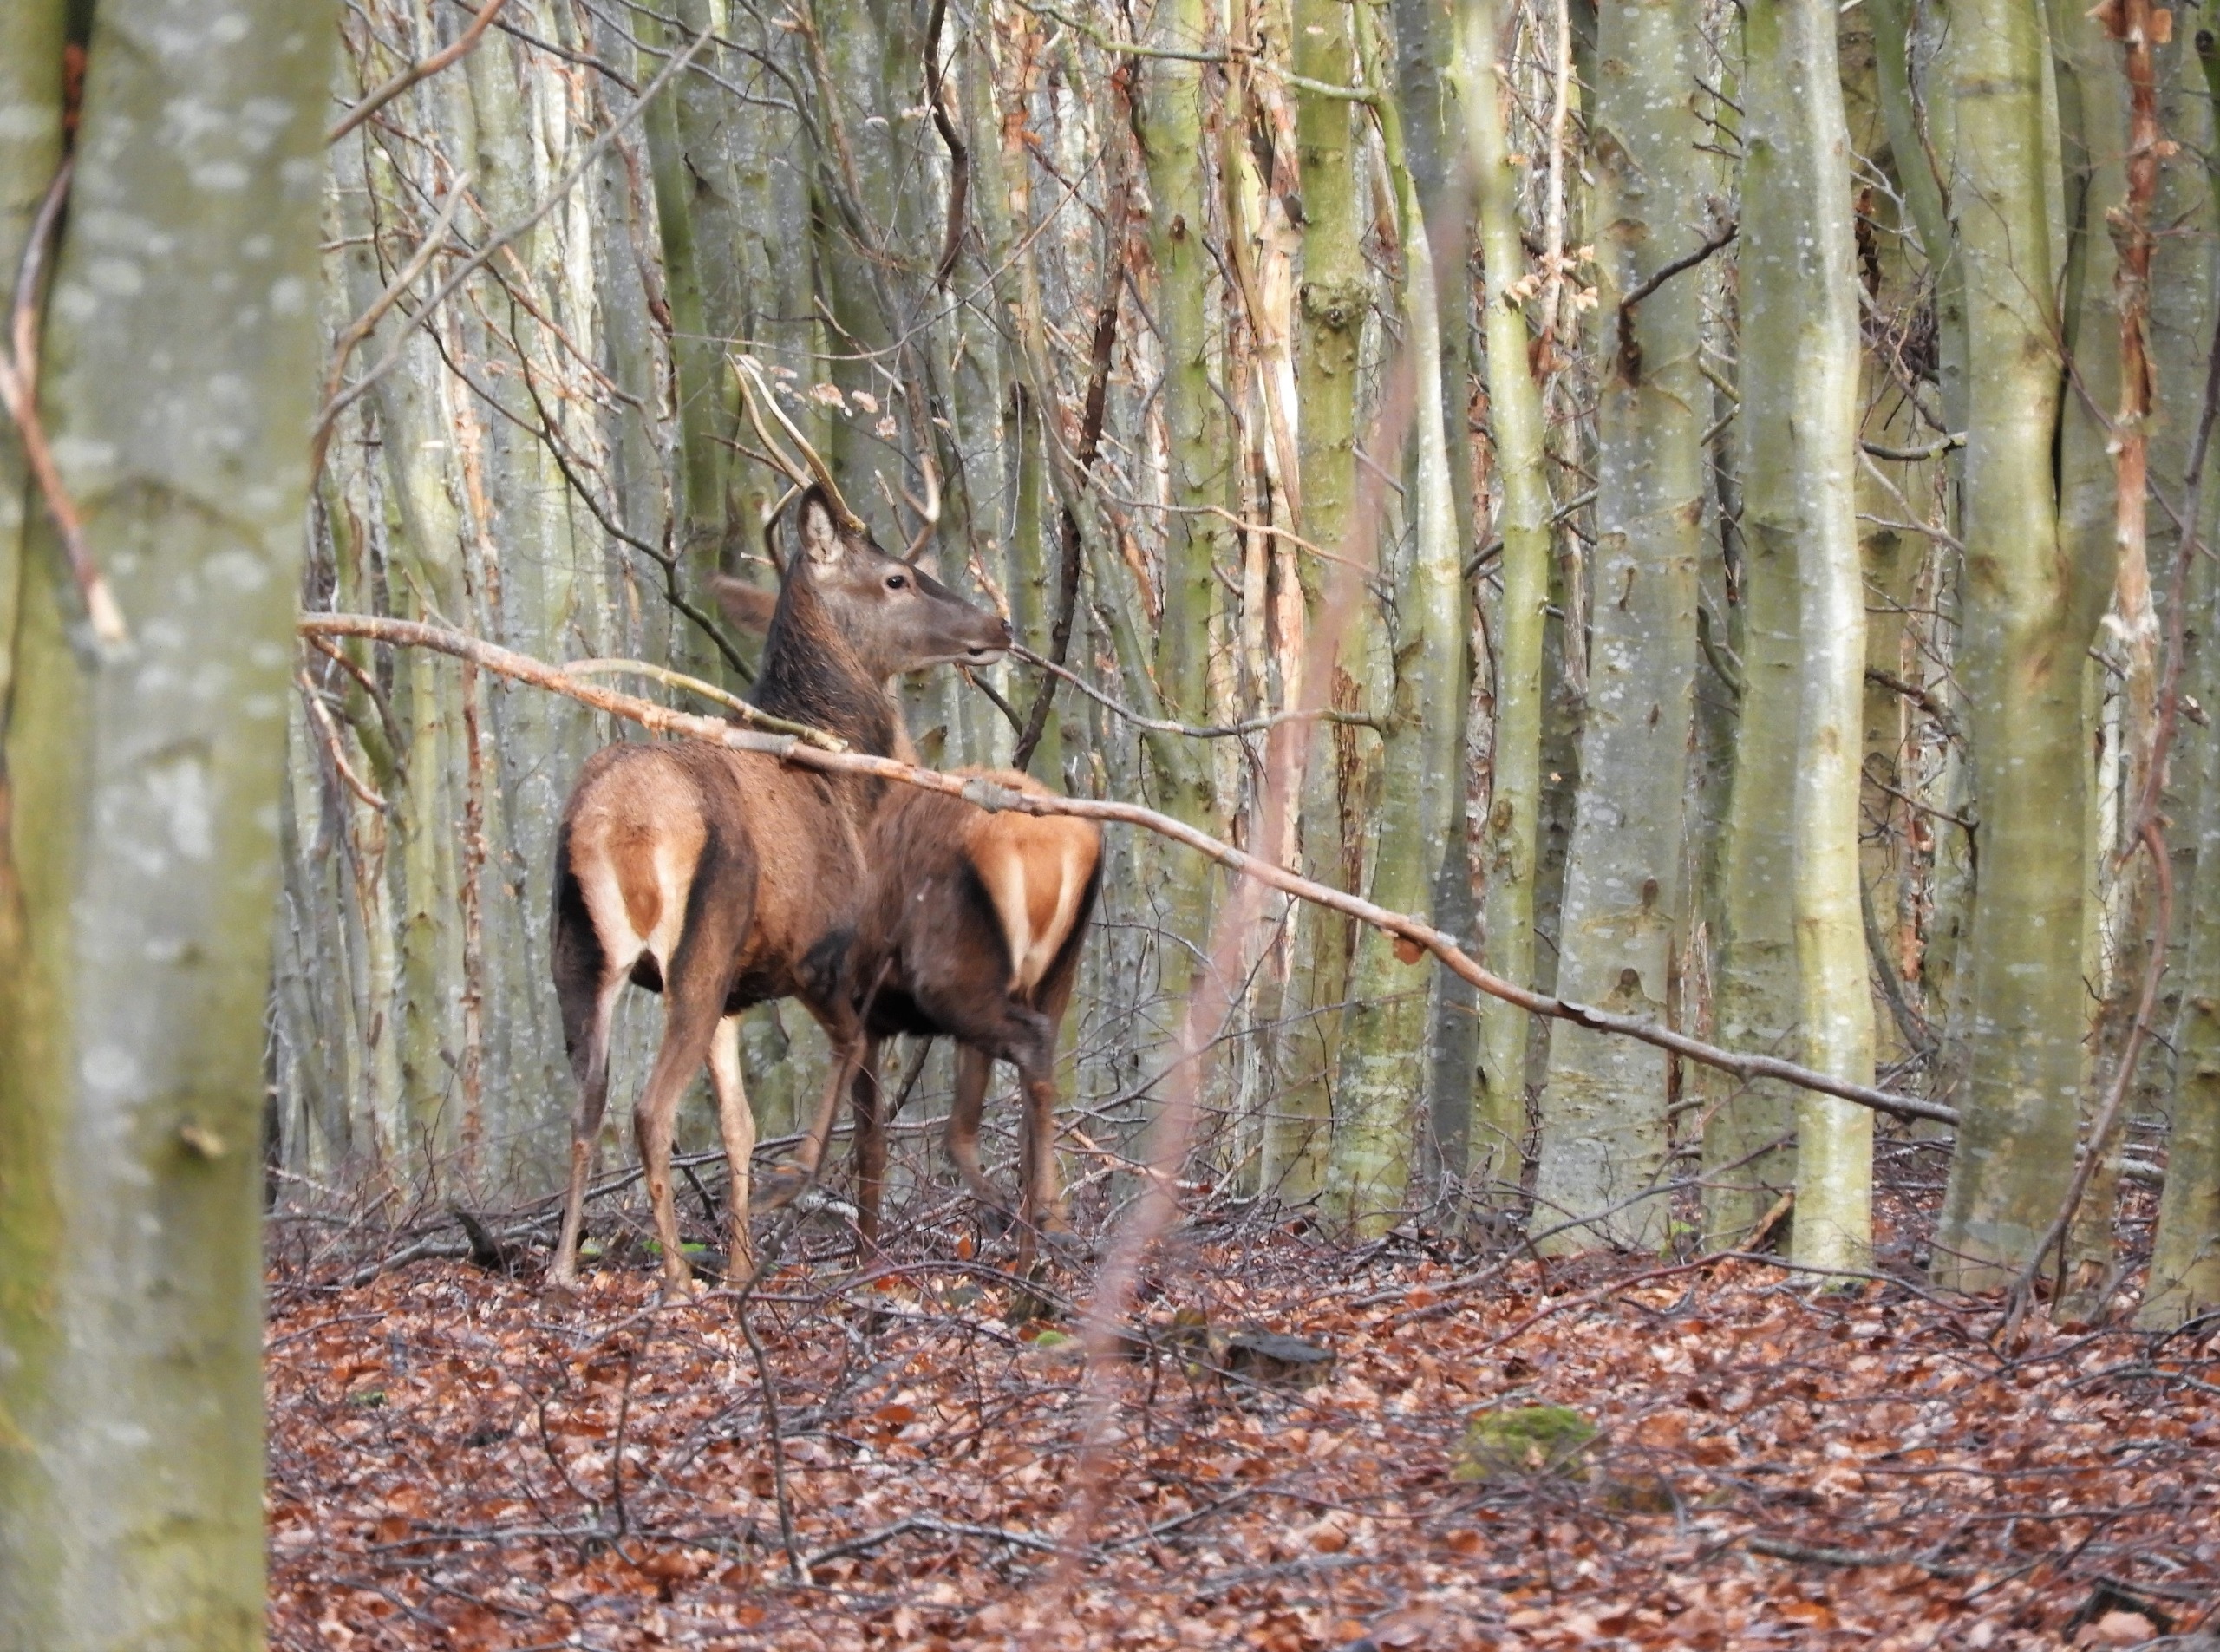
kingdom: Animalia
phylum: Chordata
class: Mammalia
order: Artiodactyla
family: Cervidae
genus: Cervus
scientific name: Cervus elaphus
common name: Krondyr
